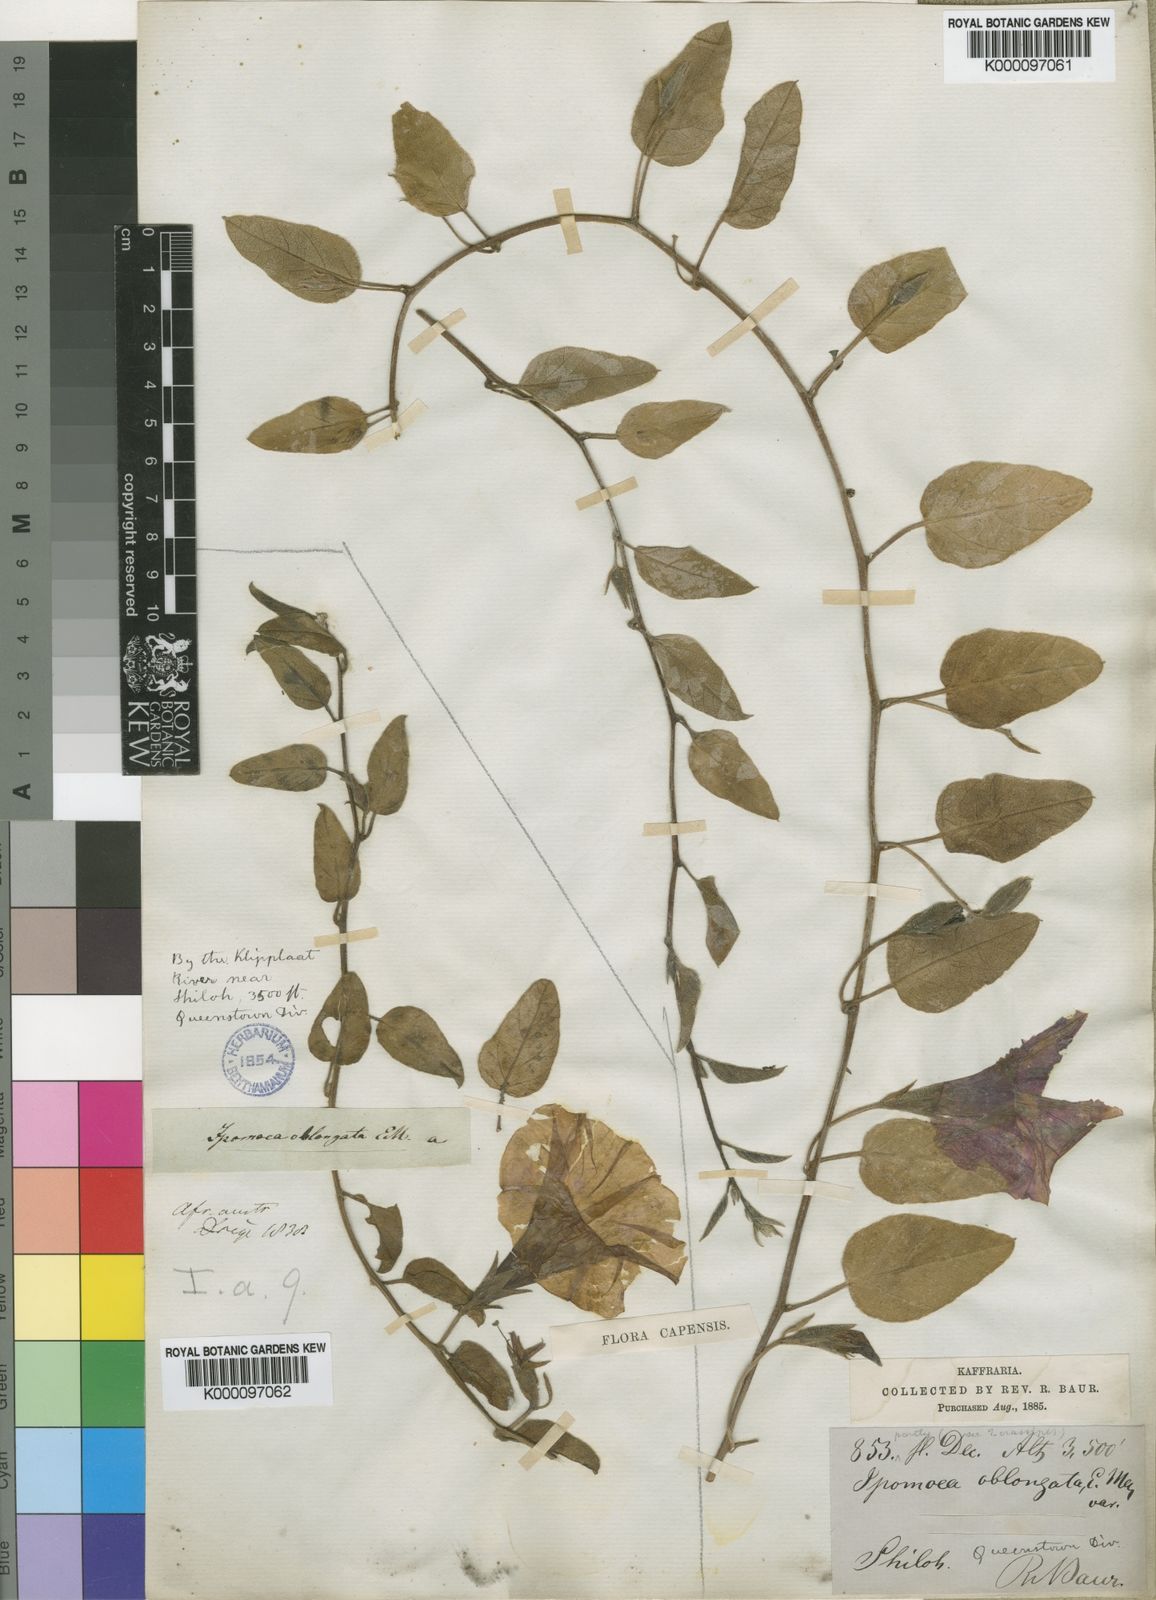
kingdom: Plantae
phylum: Tracheophyta
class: Magnoliopsida
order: Solanales
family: Convolvulaceae
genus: Ipomoea
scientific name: Ipomoea oblongata
